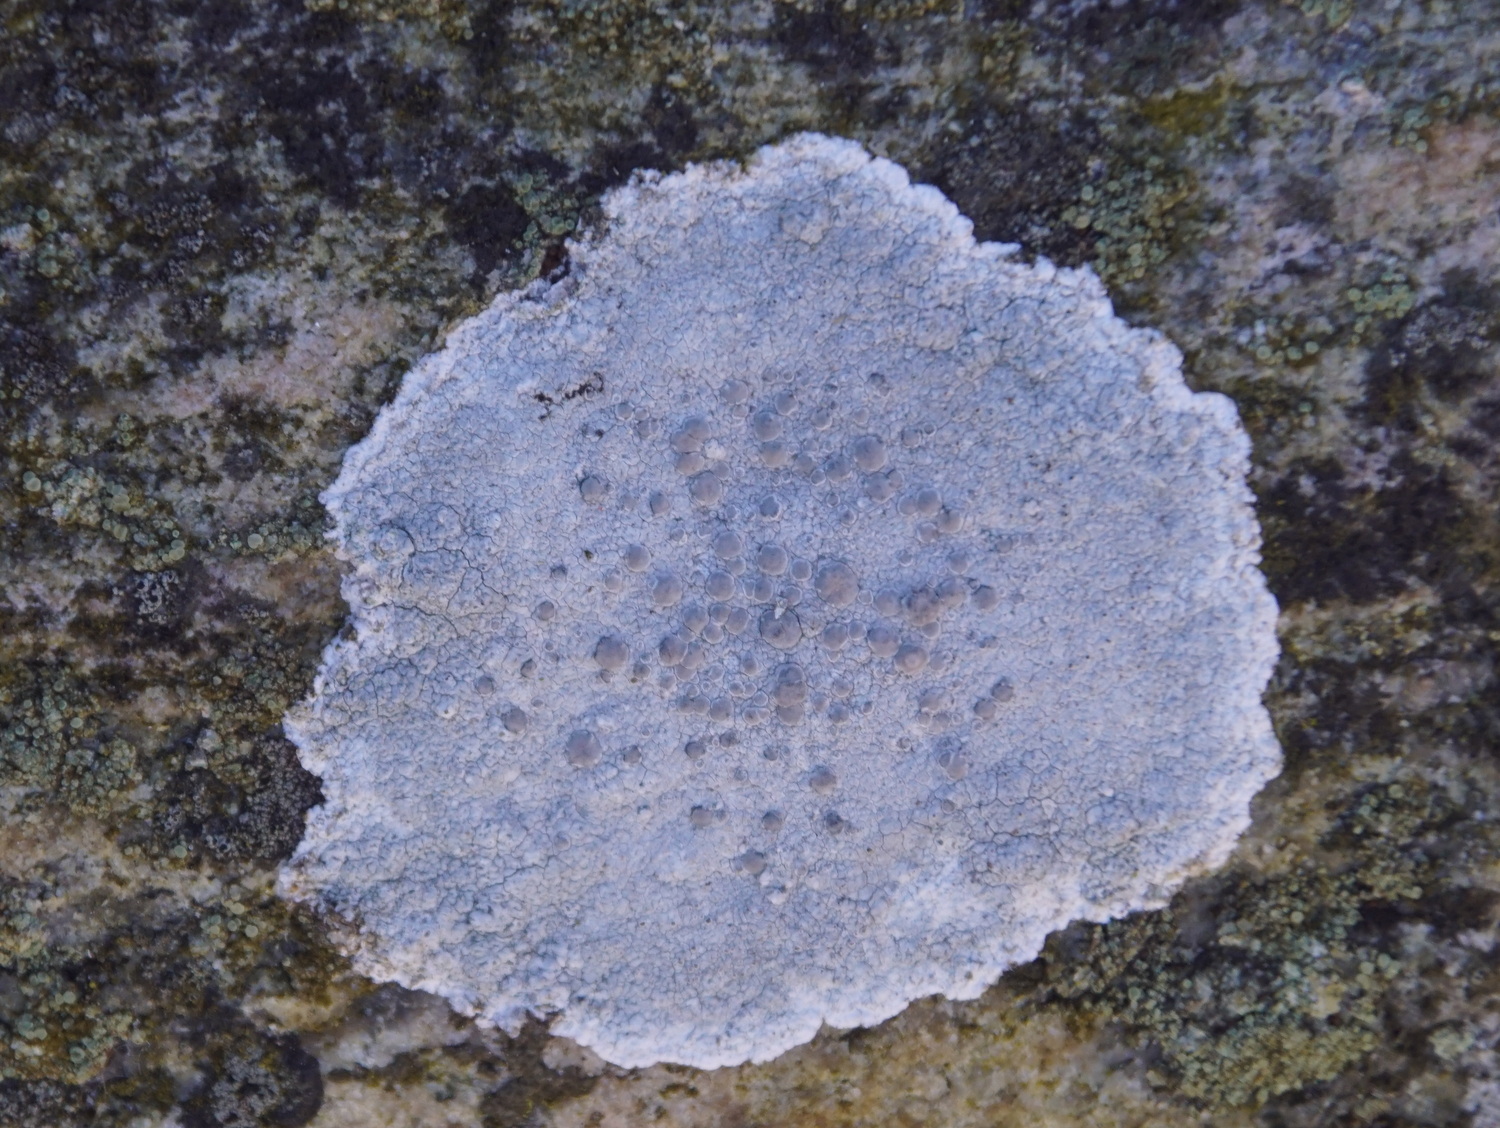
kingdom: Fungi
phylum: Ascomycota
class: Lecanoromycetes
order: Lecanorales
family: Lecanoraceae
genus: Glaucomaria
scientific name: Glaucomaria rupicola
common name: stengærde-kantskivelav
